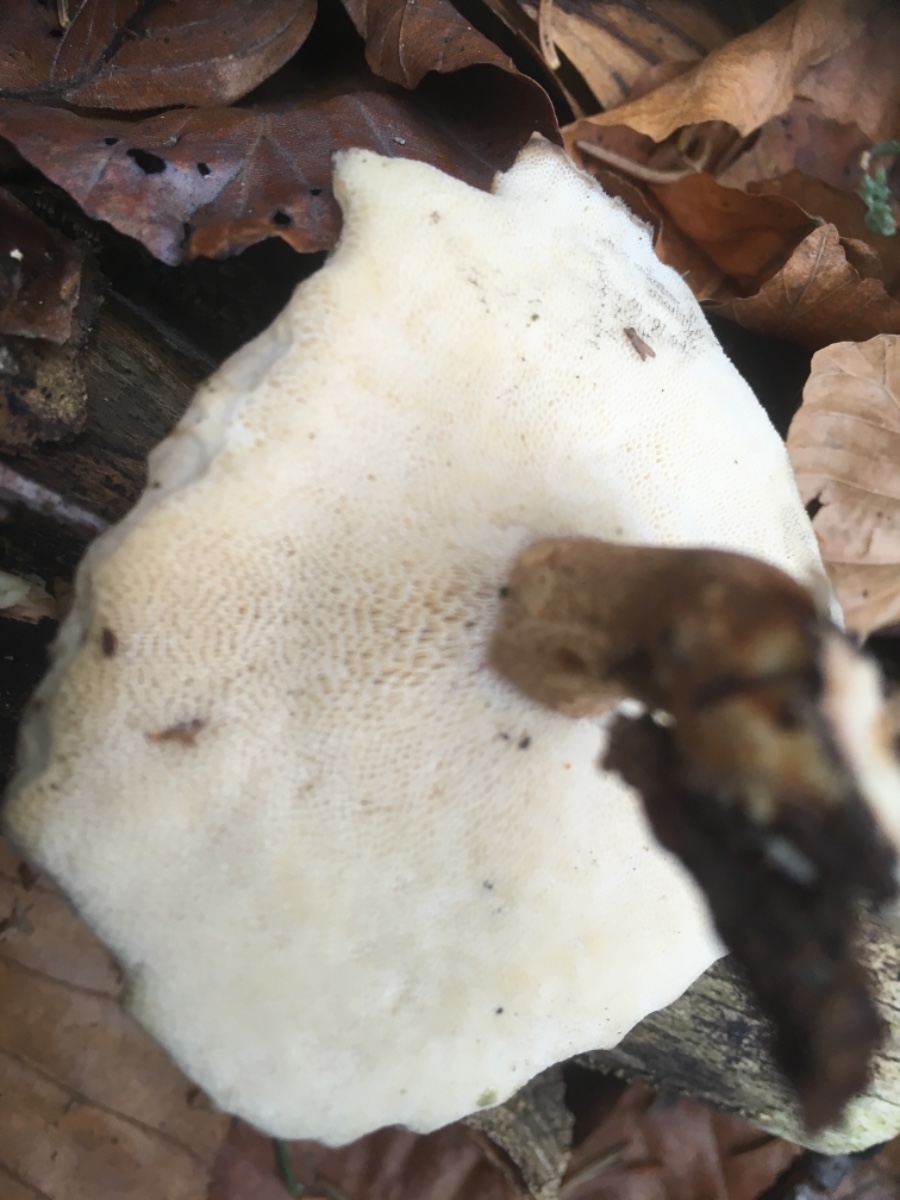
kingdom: Fungi
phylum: Basidiomycota
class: Agaricomycetes
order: Polyporales
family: Polyporaceae
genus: Lentinus
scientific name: Lentinus brumalis
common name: vinter-stilkporesvamp
